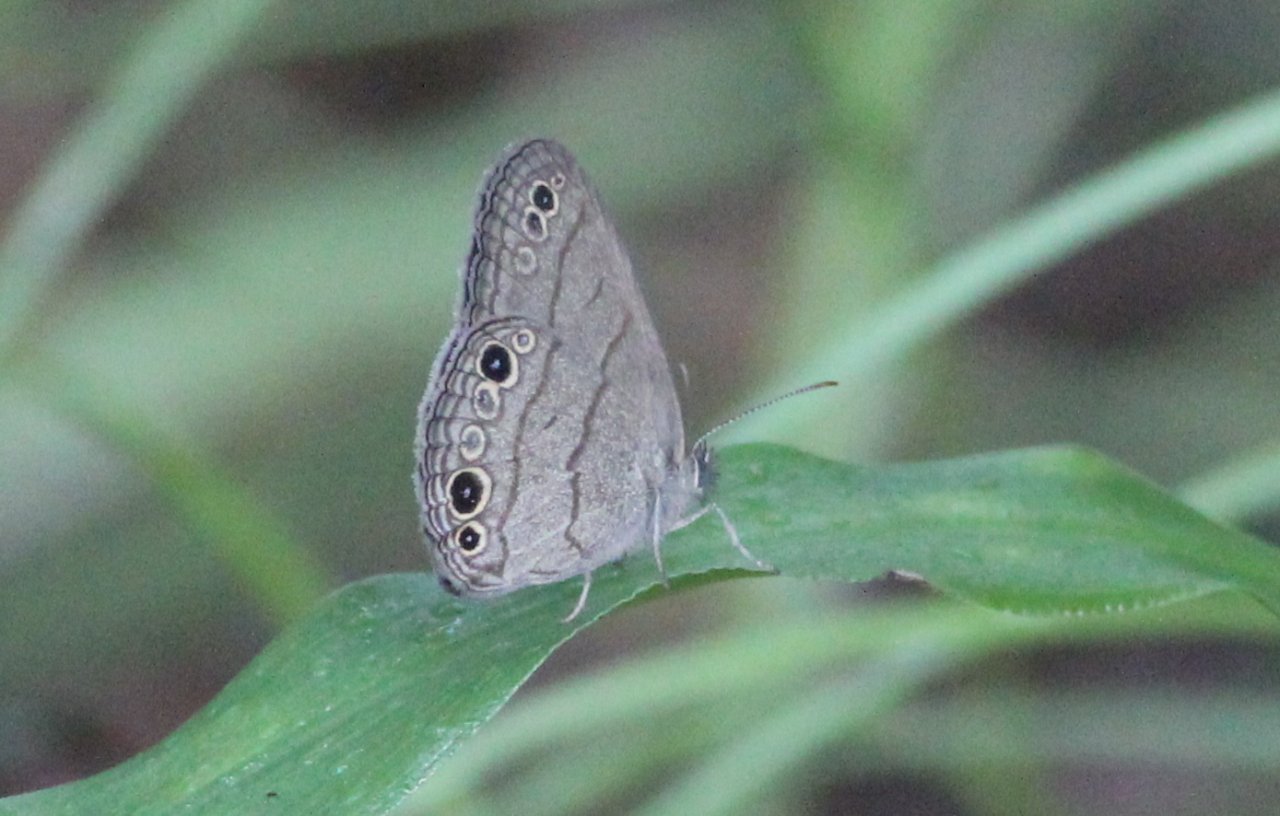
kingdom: Animalia
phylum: Arthropoda
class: Insecta
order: Lepidoptera
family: Nymphalidae
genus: Hermeuptychia
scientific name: Hermeuptychia hermes
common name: Carolina Satyr
